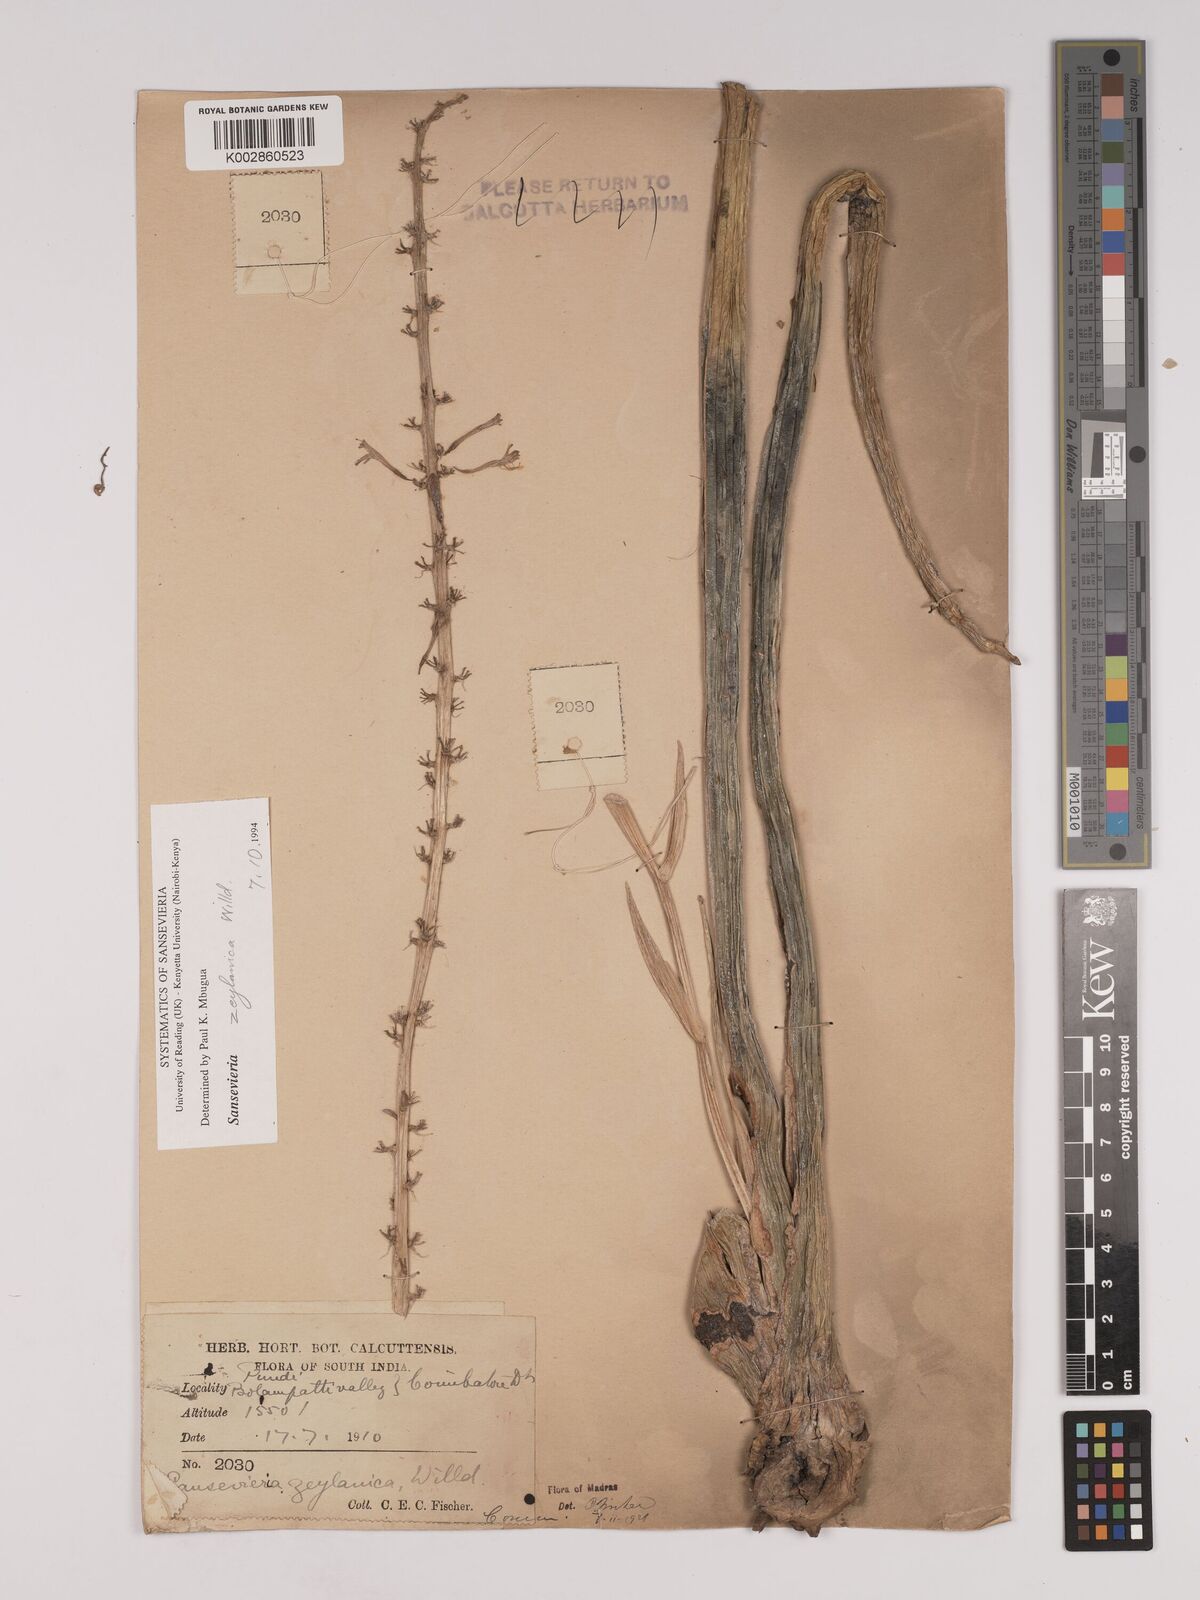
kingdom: Plantae
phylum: Tracheophyta
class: Liliopsida
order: Asparagales
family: Asparagaceae
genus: Dracaena
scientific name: Dracaena roxburghiana
